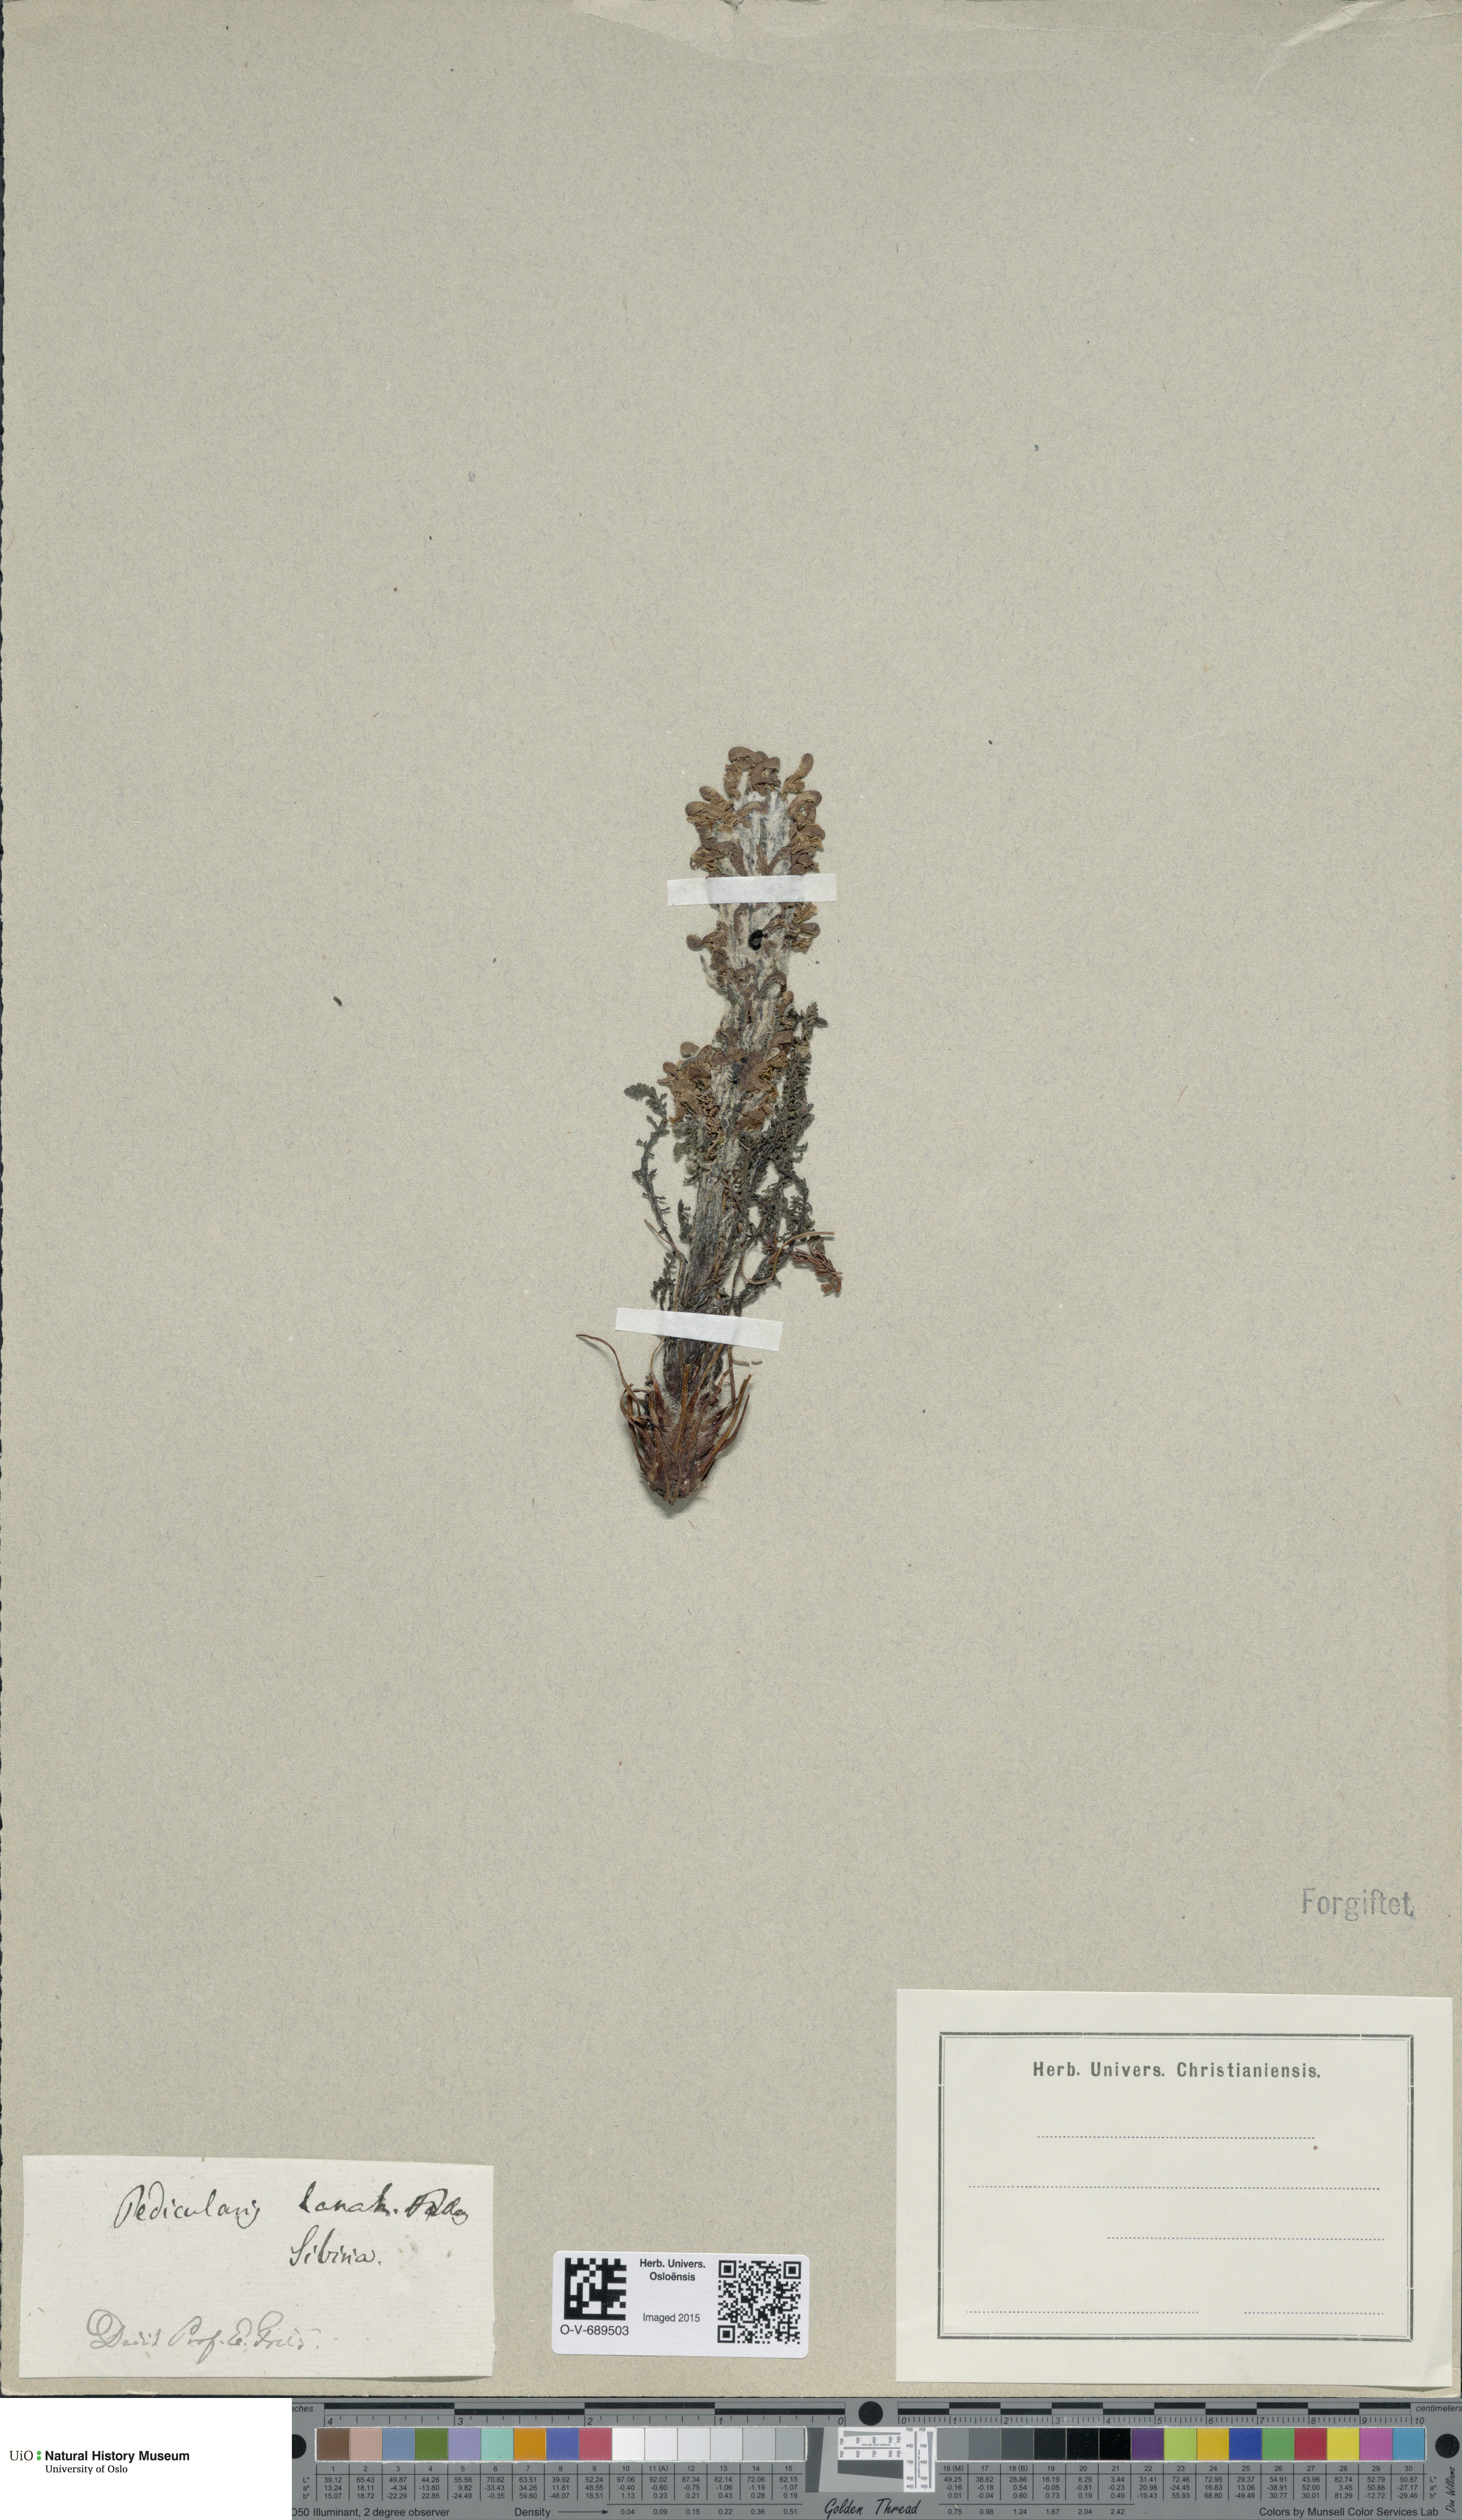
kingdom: Plantae
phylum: Tracheophyta
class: Magnoliopsida
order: Lamiales
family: Orobanchaceae
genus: Pedicularis
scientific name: Pedicularis lanata
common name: Woolly lousewort
